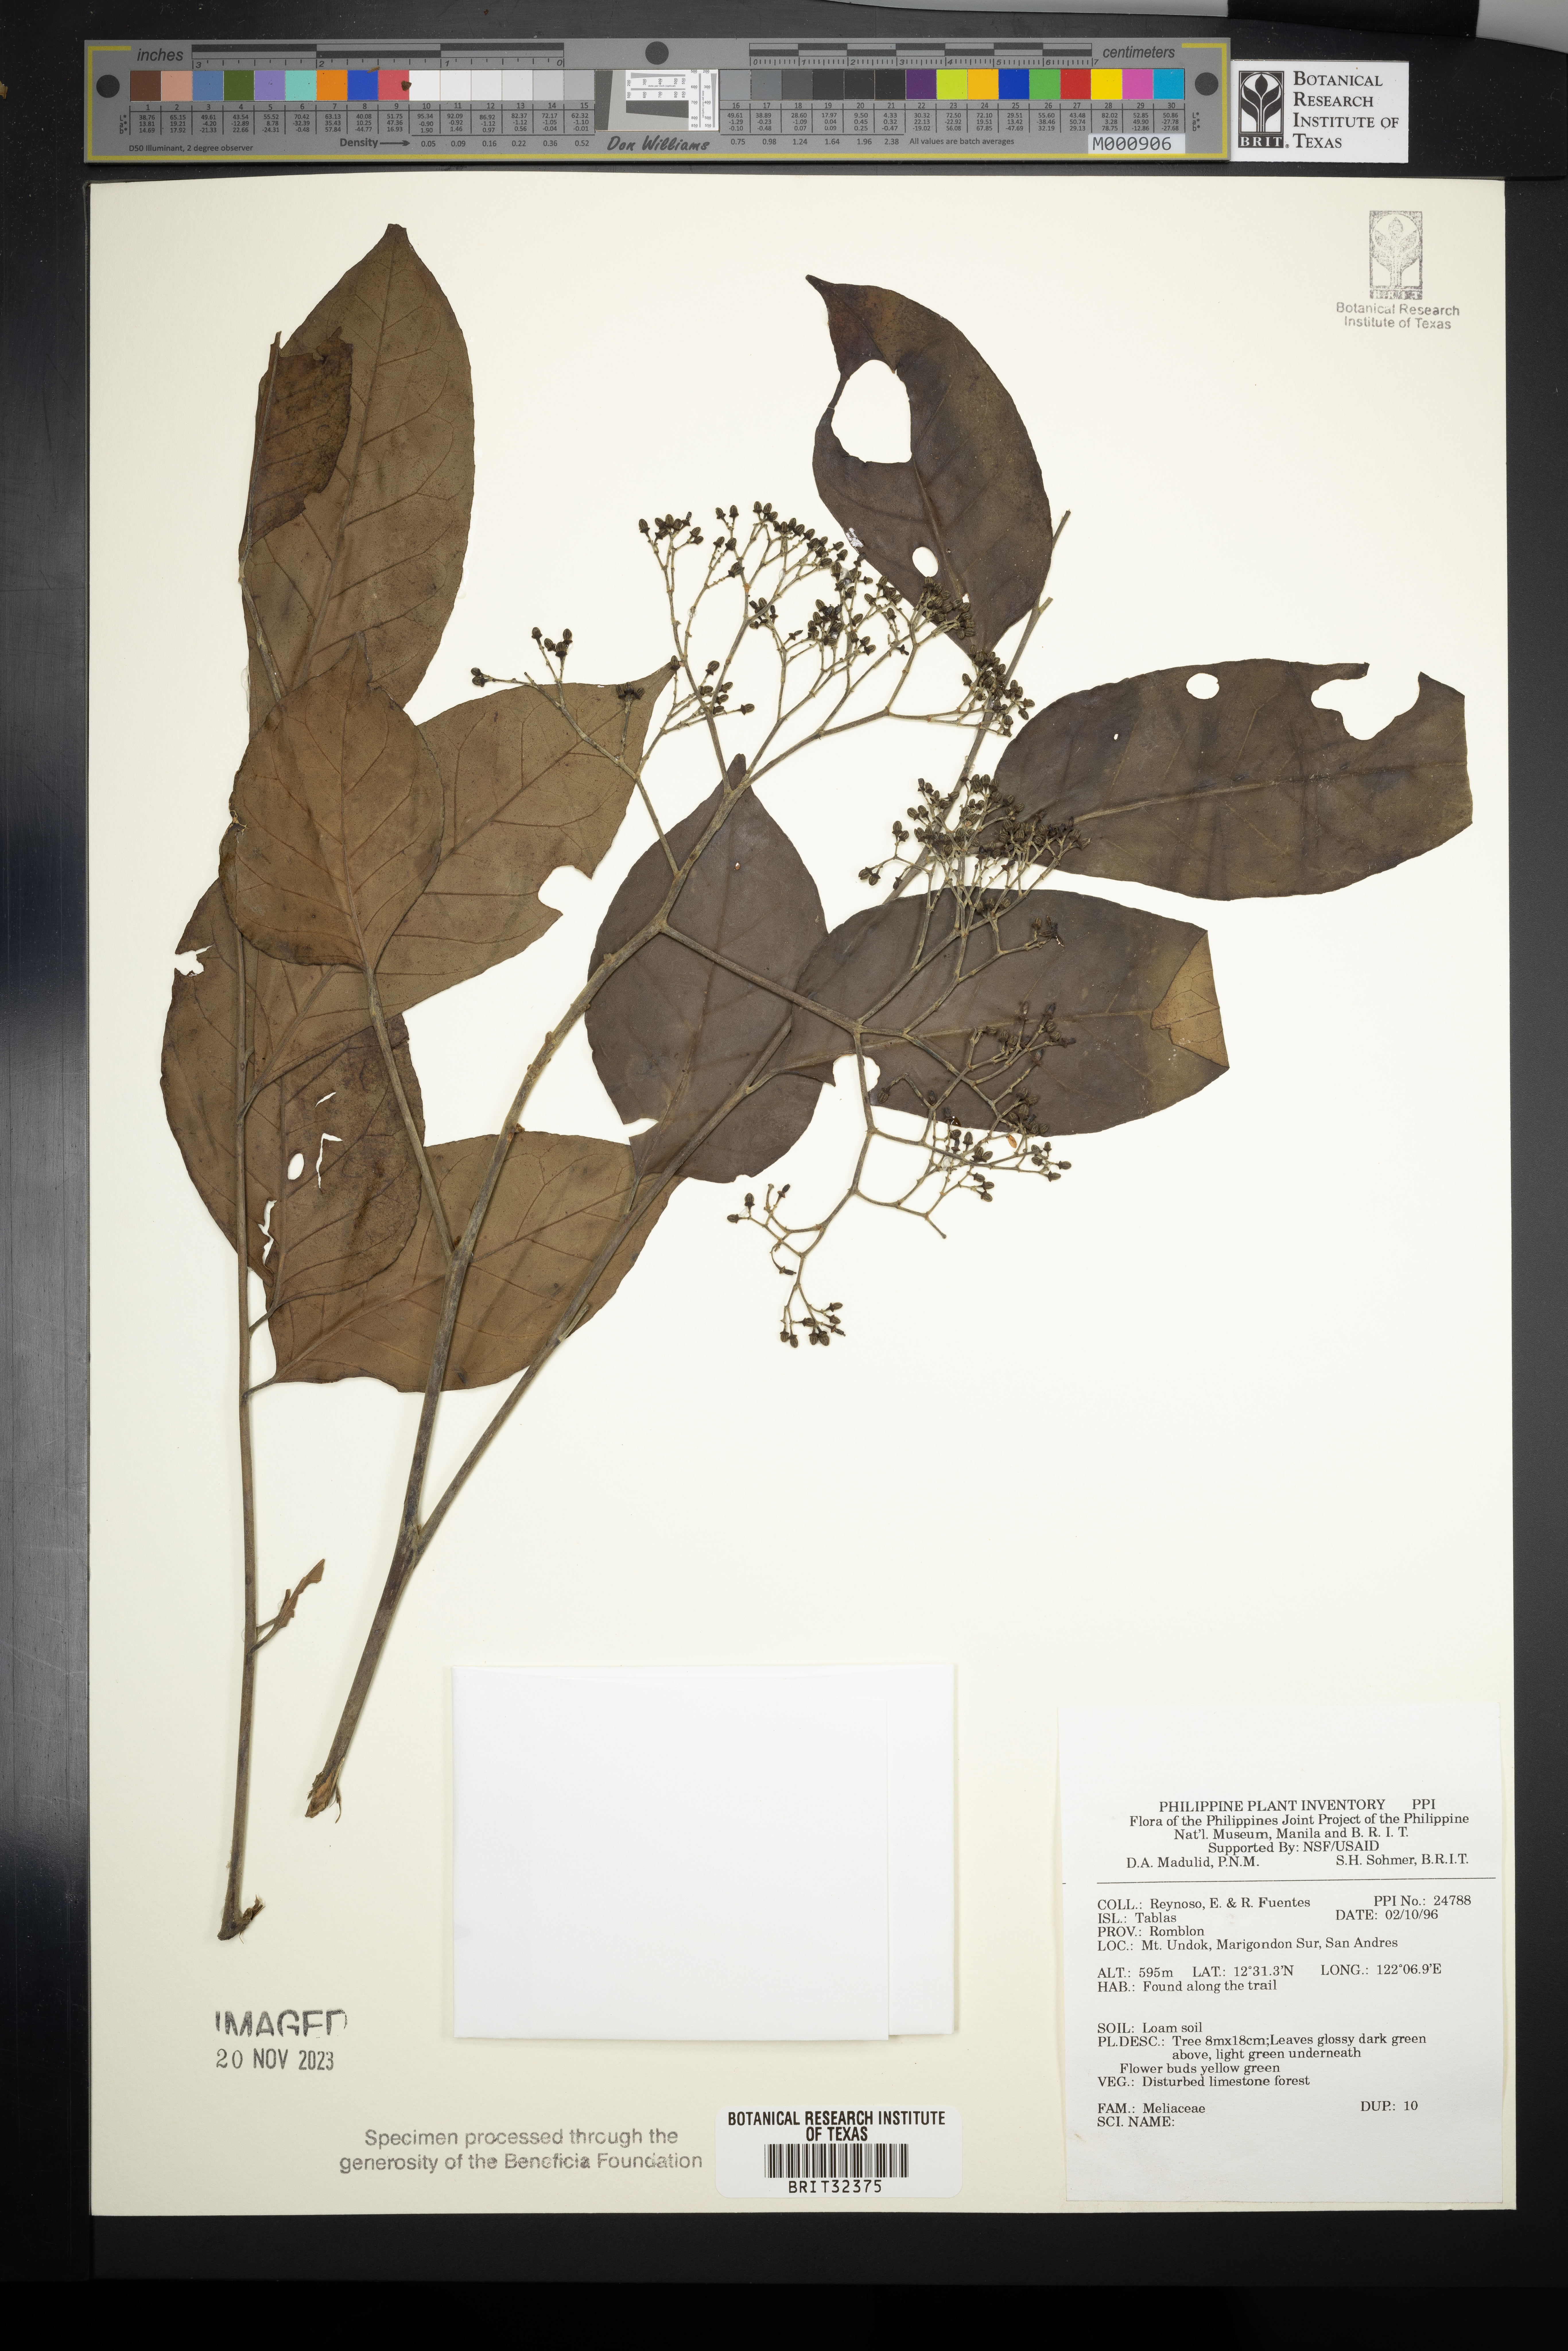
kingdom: Plantae
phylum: Tracheophyta
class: Magnoliopsida
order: Sapindales
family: Meliaceae
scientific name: Meliaceae
